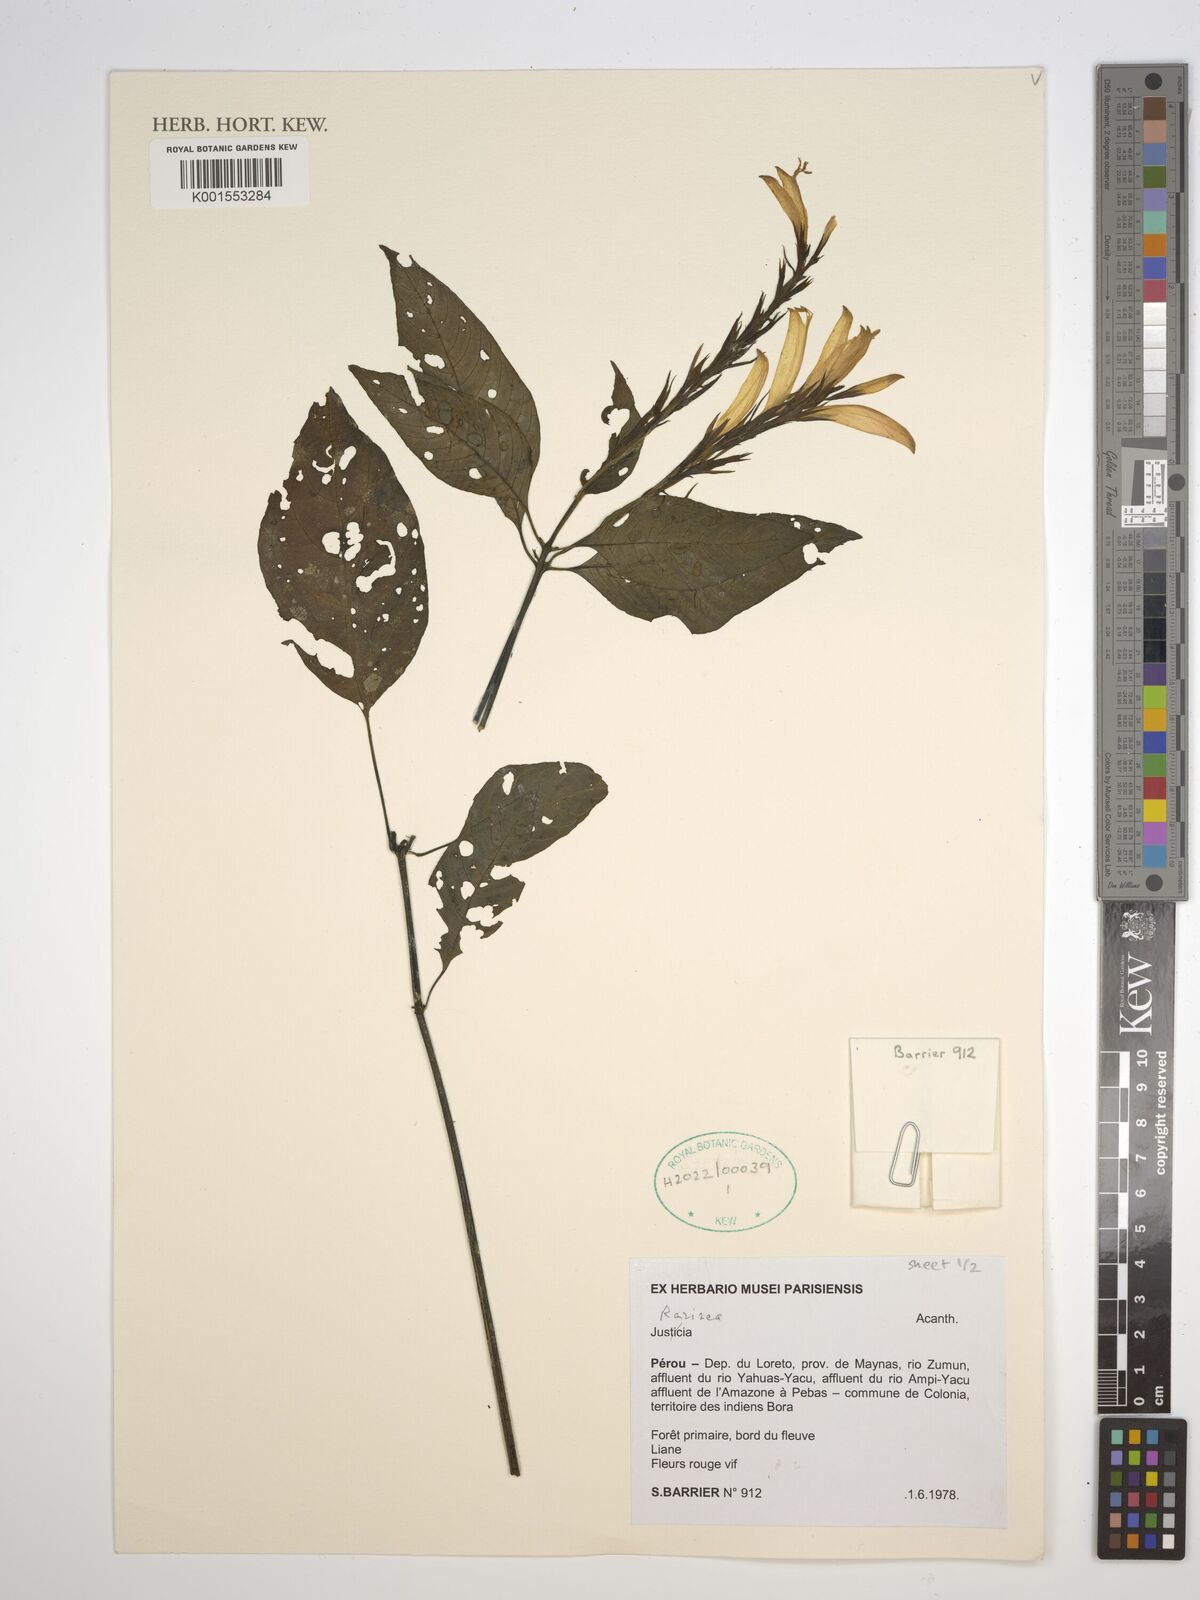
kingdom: Plantae
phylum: Tracheophyta
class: Magnoliopsida
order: Lamiales
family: Acanthaceae
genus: Stenostephanus
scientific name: Stenostephanus
